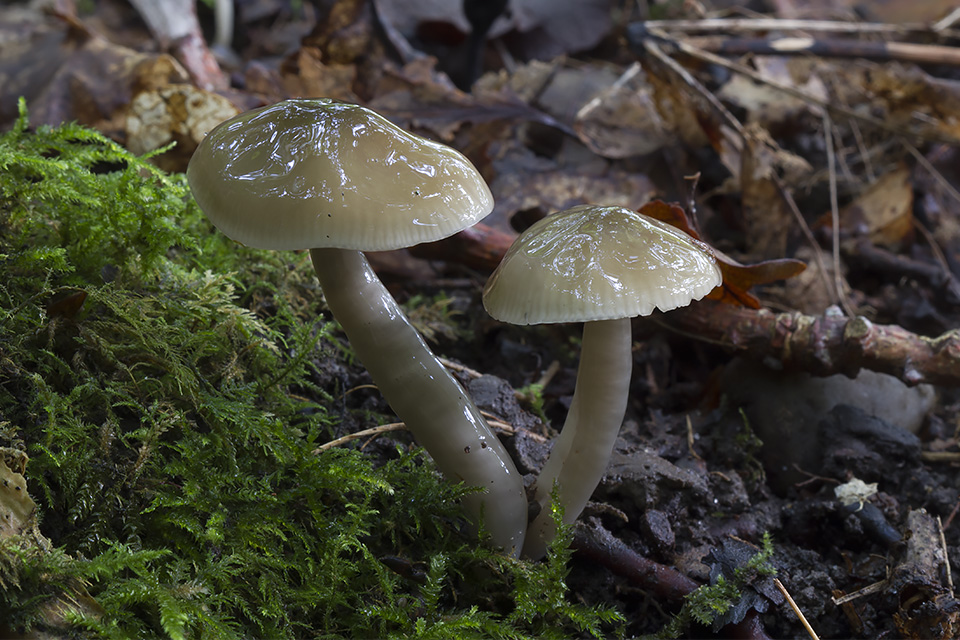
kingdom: Fungi
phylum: Basidiomycota
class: Agaricomycetes
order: Agaricales
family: Hygrophoraceae
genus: Gliophorus
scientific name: Gliophorus irrigatus
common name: slimet vokshat
